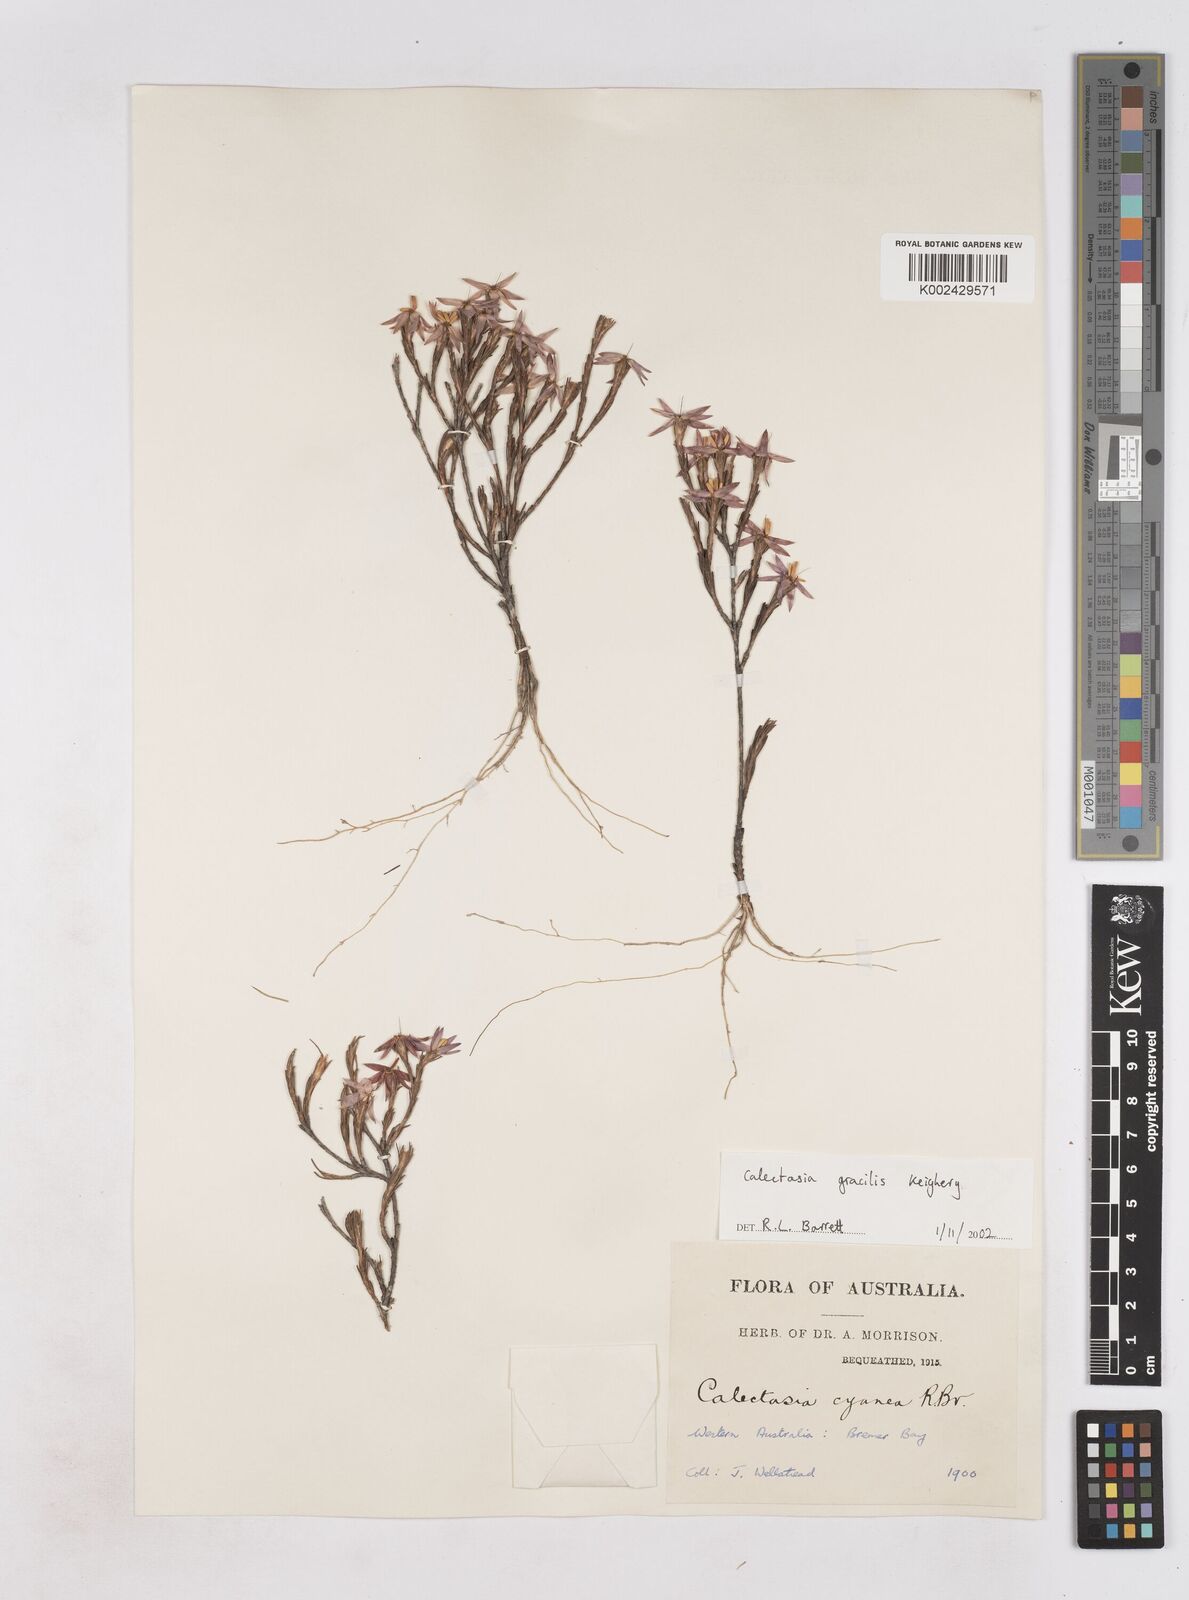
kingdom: Plantae
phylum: Tracheophyta
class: Liliopsida
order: Arecales
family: Dasypogonaceae
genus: Calectasia
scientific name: Calectasia gracilis
